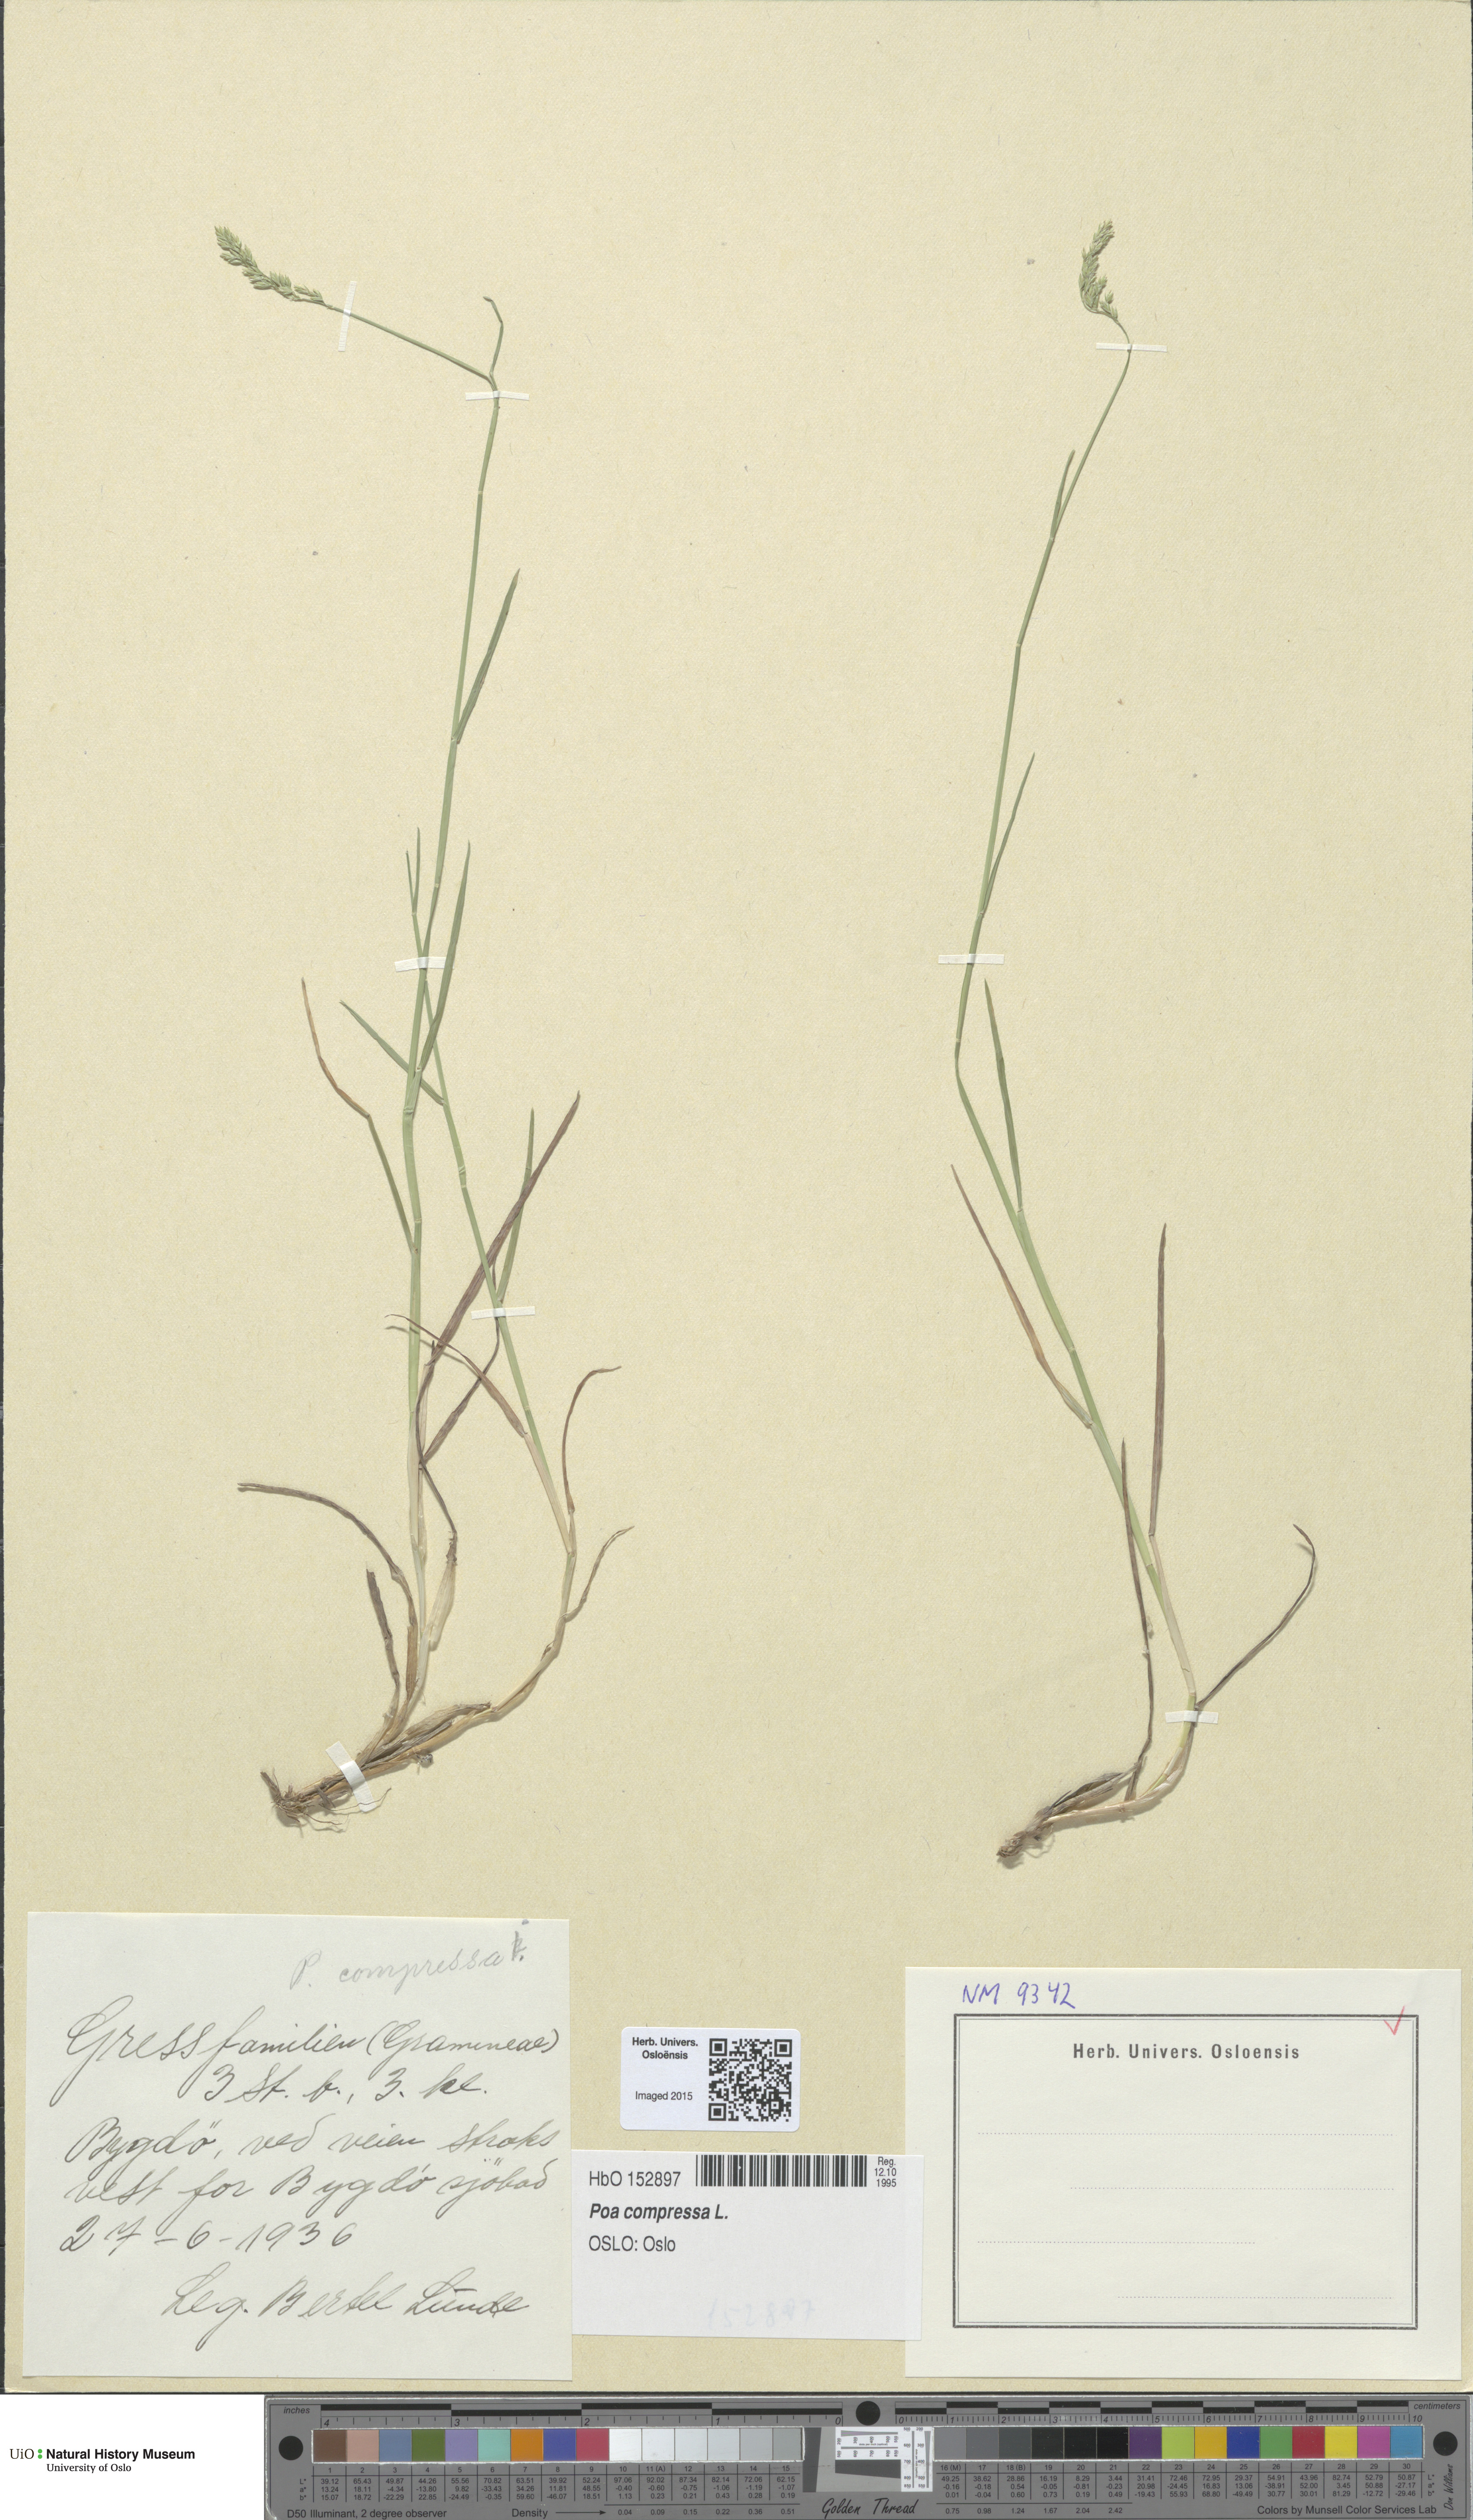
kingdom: Plantae
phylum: Tracheophyta
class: Liliopsida
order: Poales
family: Poaceae
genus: Poa
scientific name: Poa compressa
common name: Canada bluegrass
